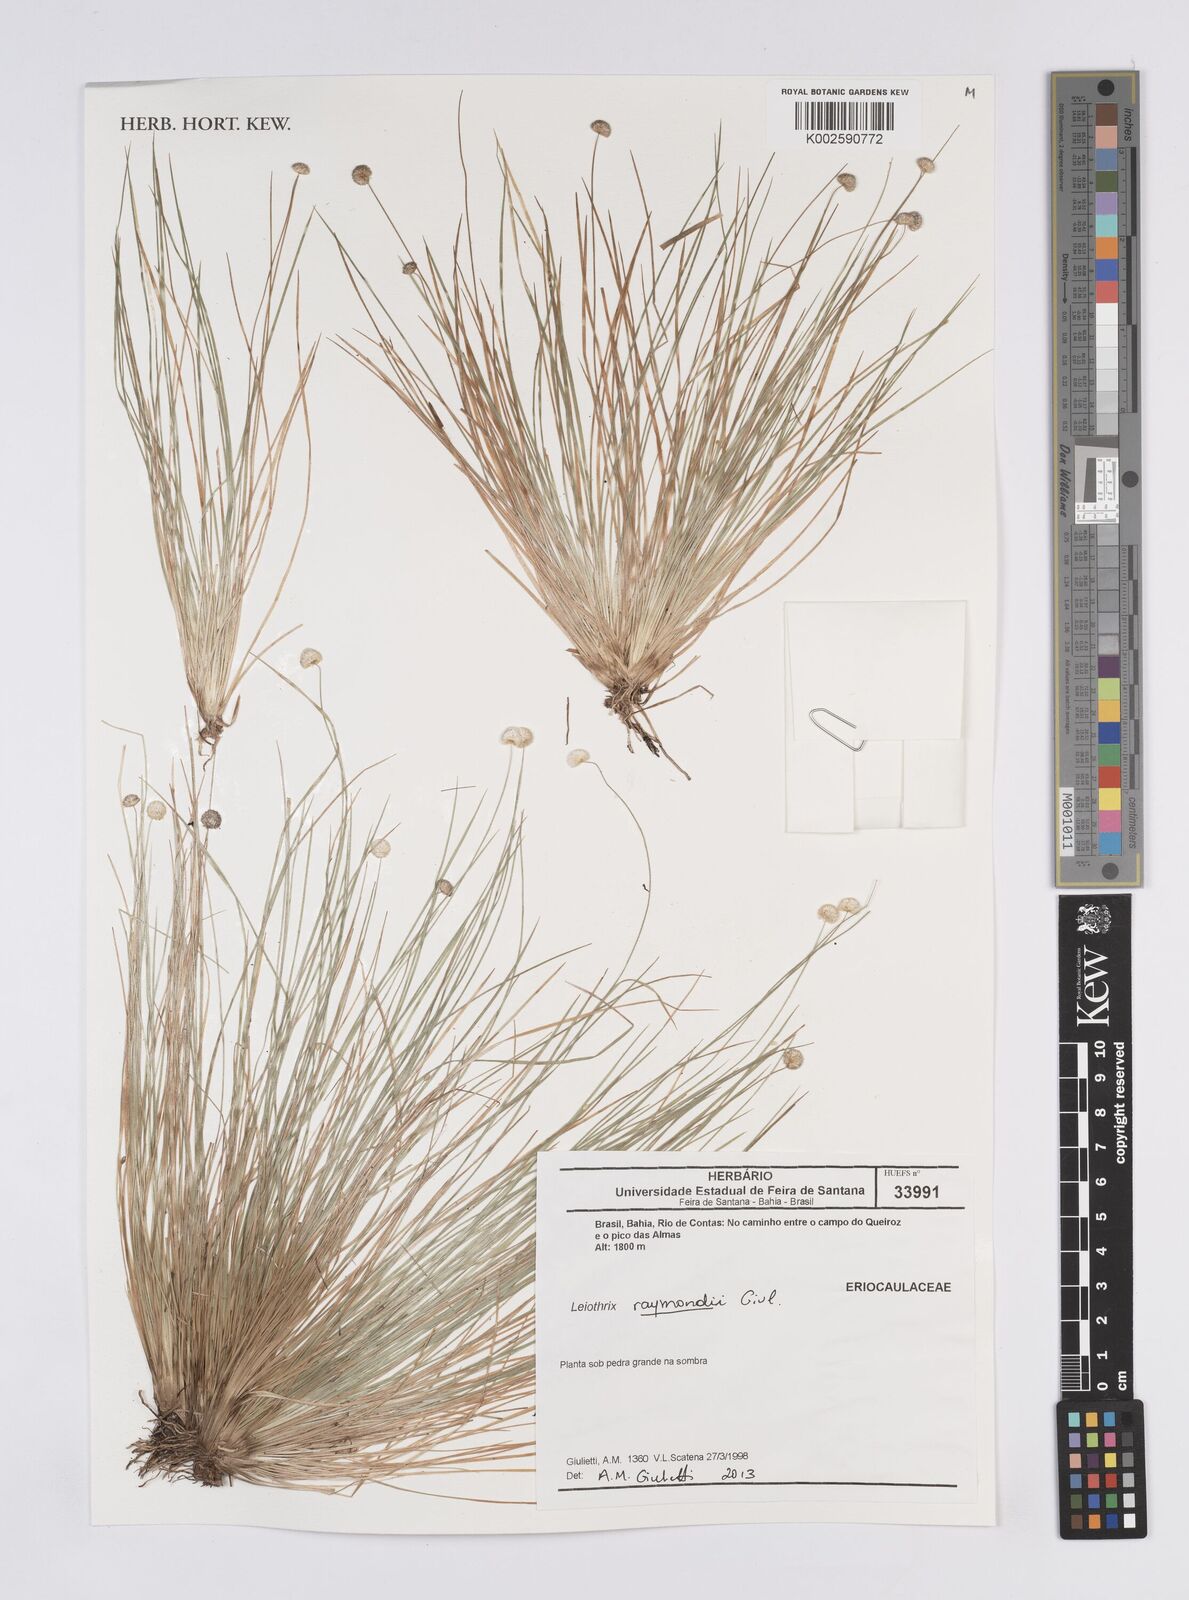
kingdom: Plantae
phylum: Tracheophyta
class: Liliopsida
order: Poales
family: Eriocaulaceae
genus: Leiothrix
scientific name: Leiothrix raymondii
